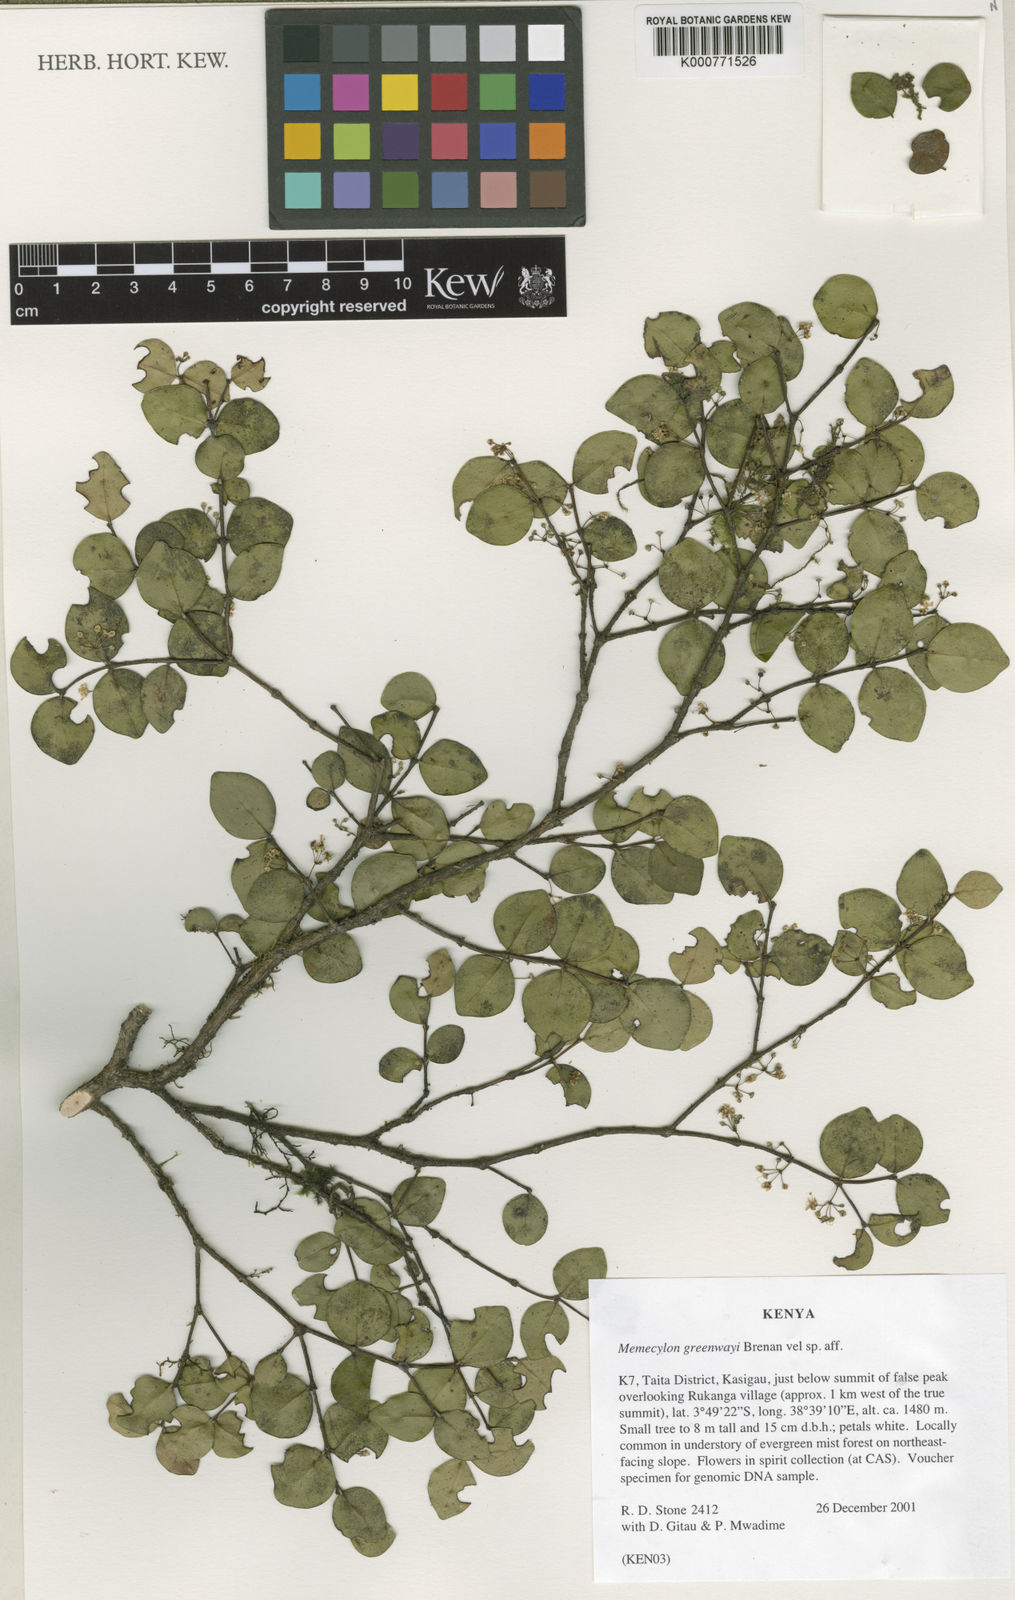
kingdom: Plantae
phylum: Tracheophyta
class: Magnoliopsida
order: Myrtales
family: Melastomataceae
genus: Memecylon
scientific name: Memecylon greenwayi
